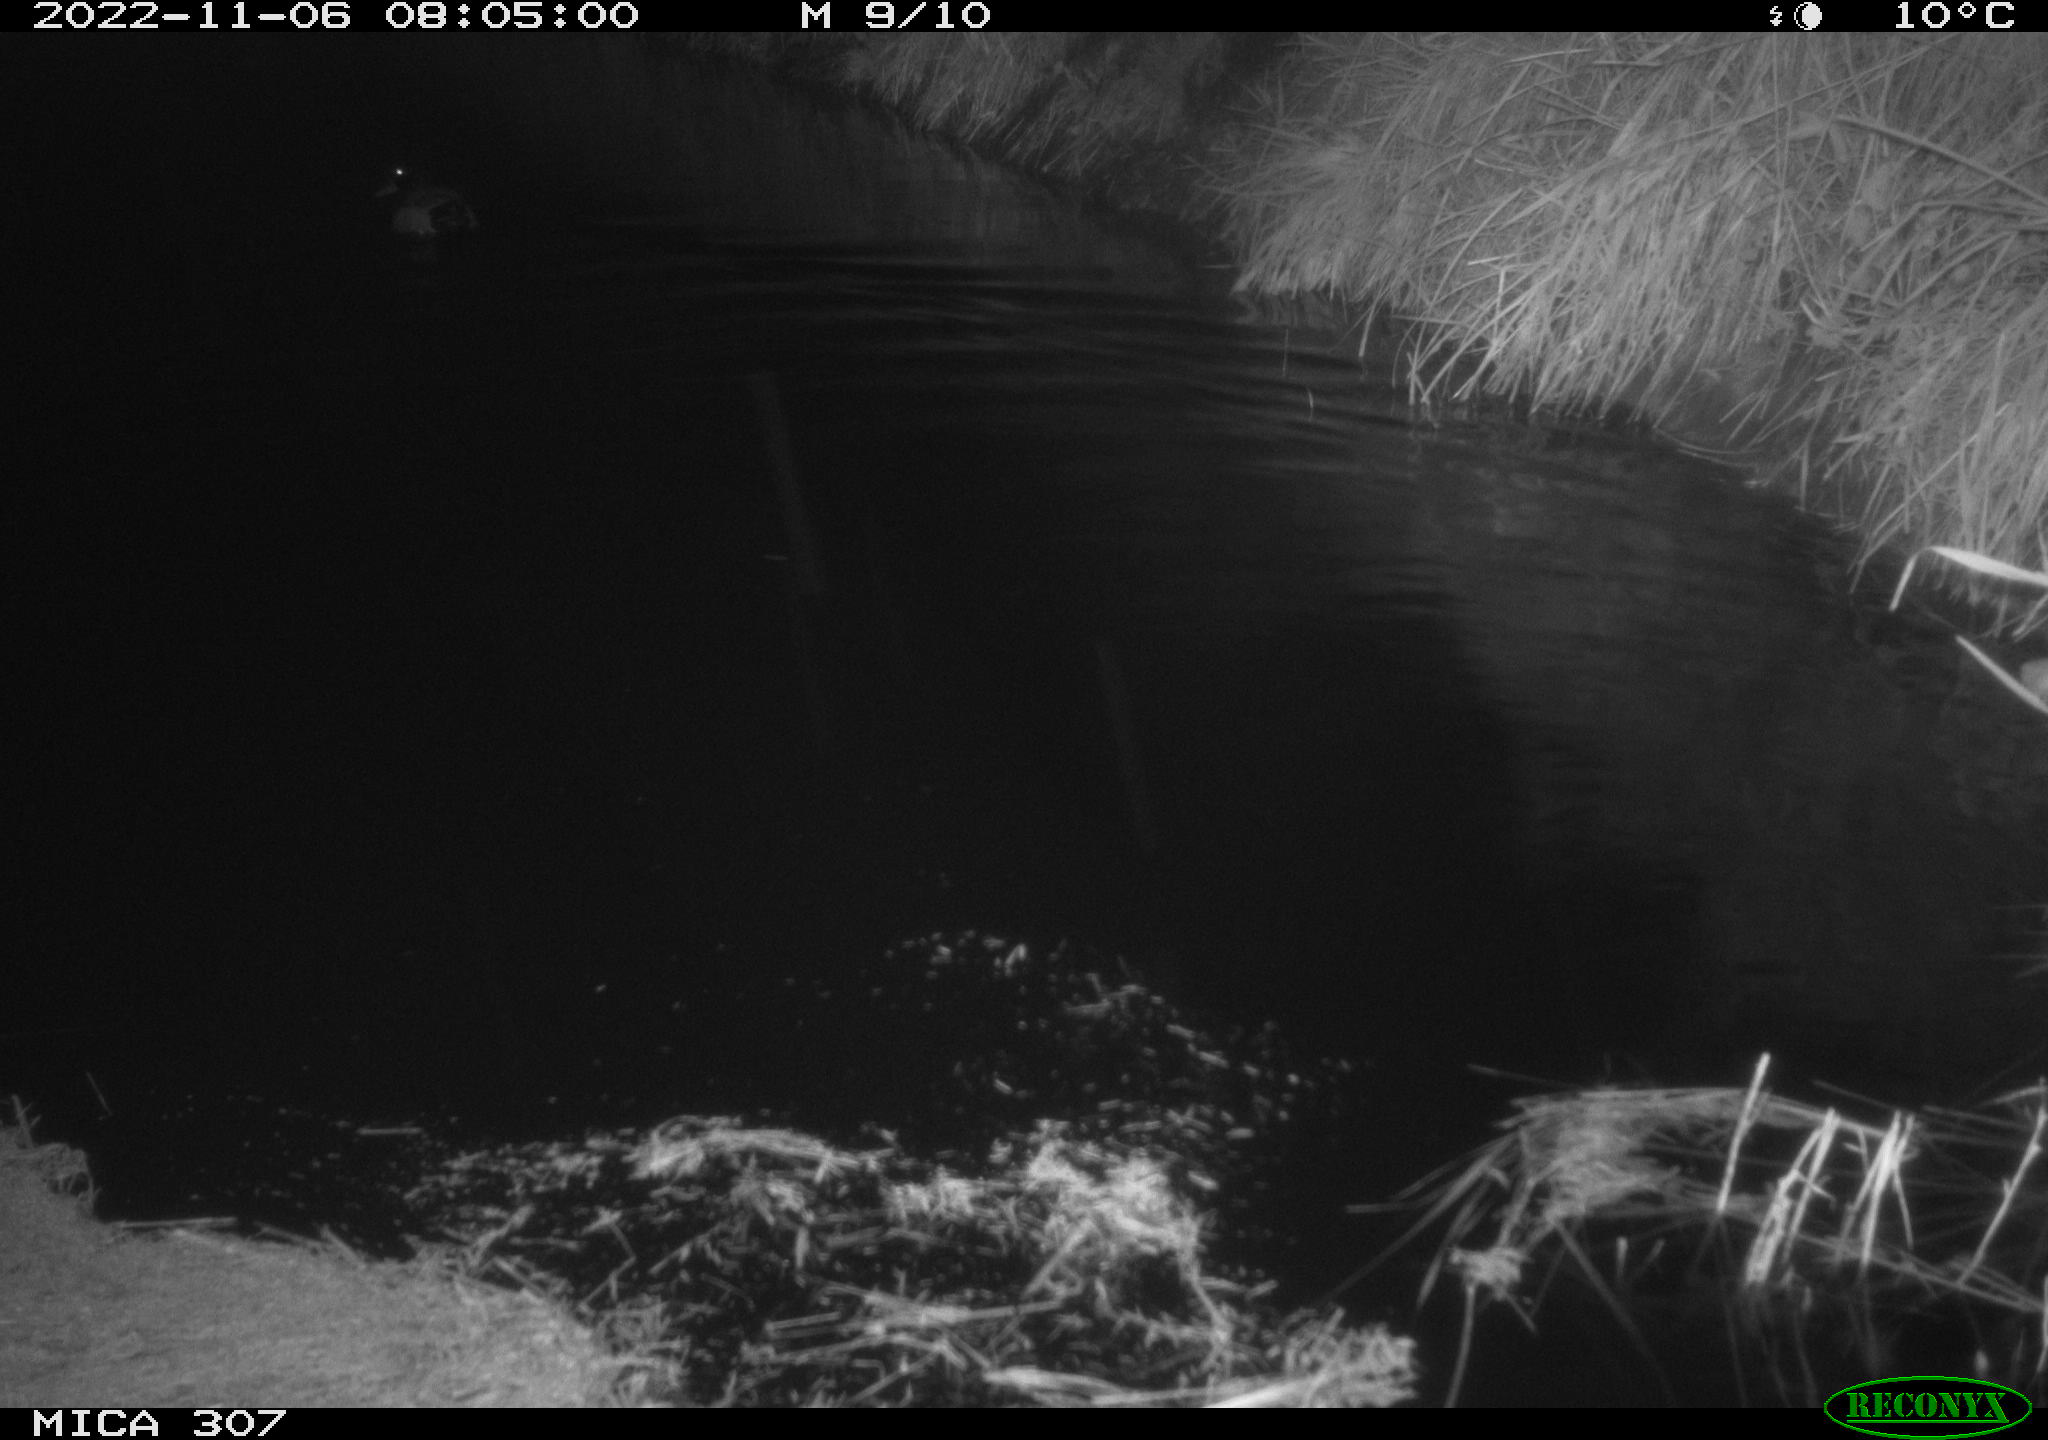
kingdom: Animalia
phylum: Chordata
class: Aves
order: Anseriformes
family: Anatidae
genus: Anas
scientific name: Anas
